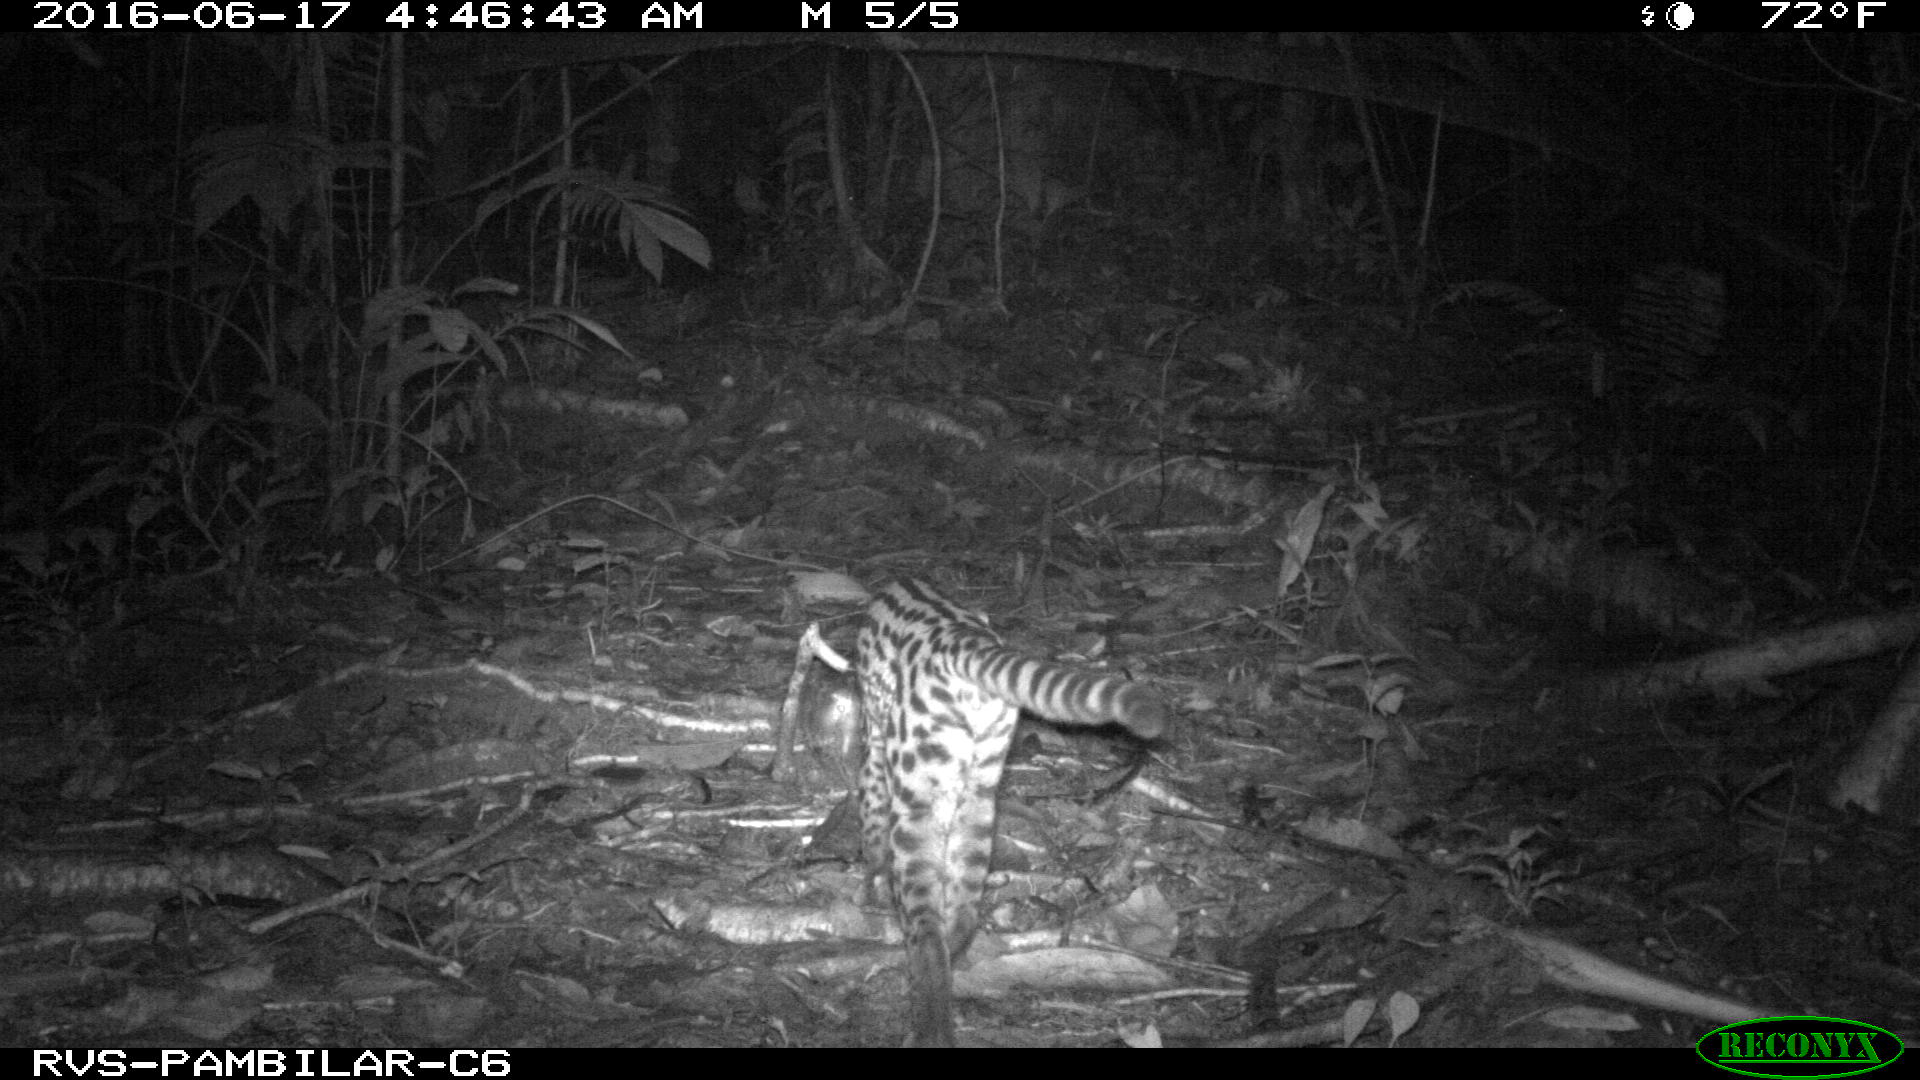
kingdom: Animalia
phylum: Chordata
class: Mammalia
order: Carnivora
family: Felidae
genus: Leopardus
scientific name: Leopardus pardalis
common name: Ocelot
